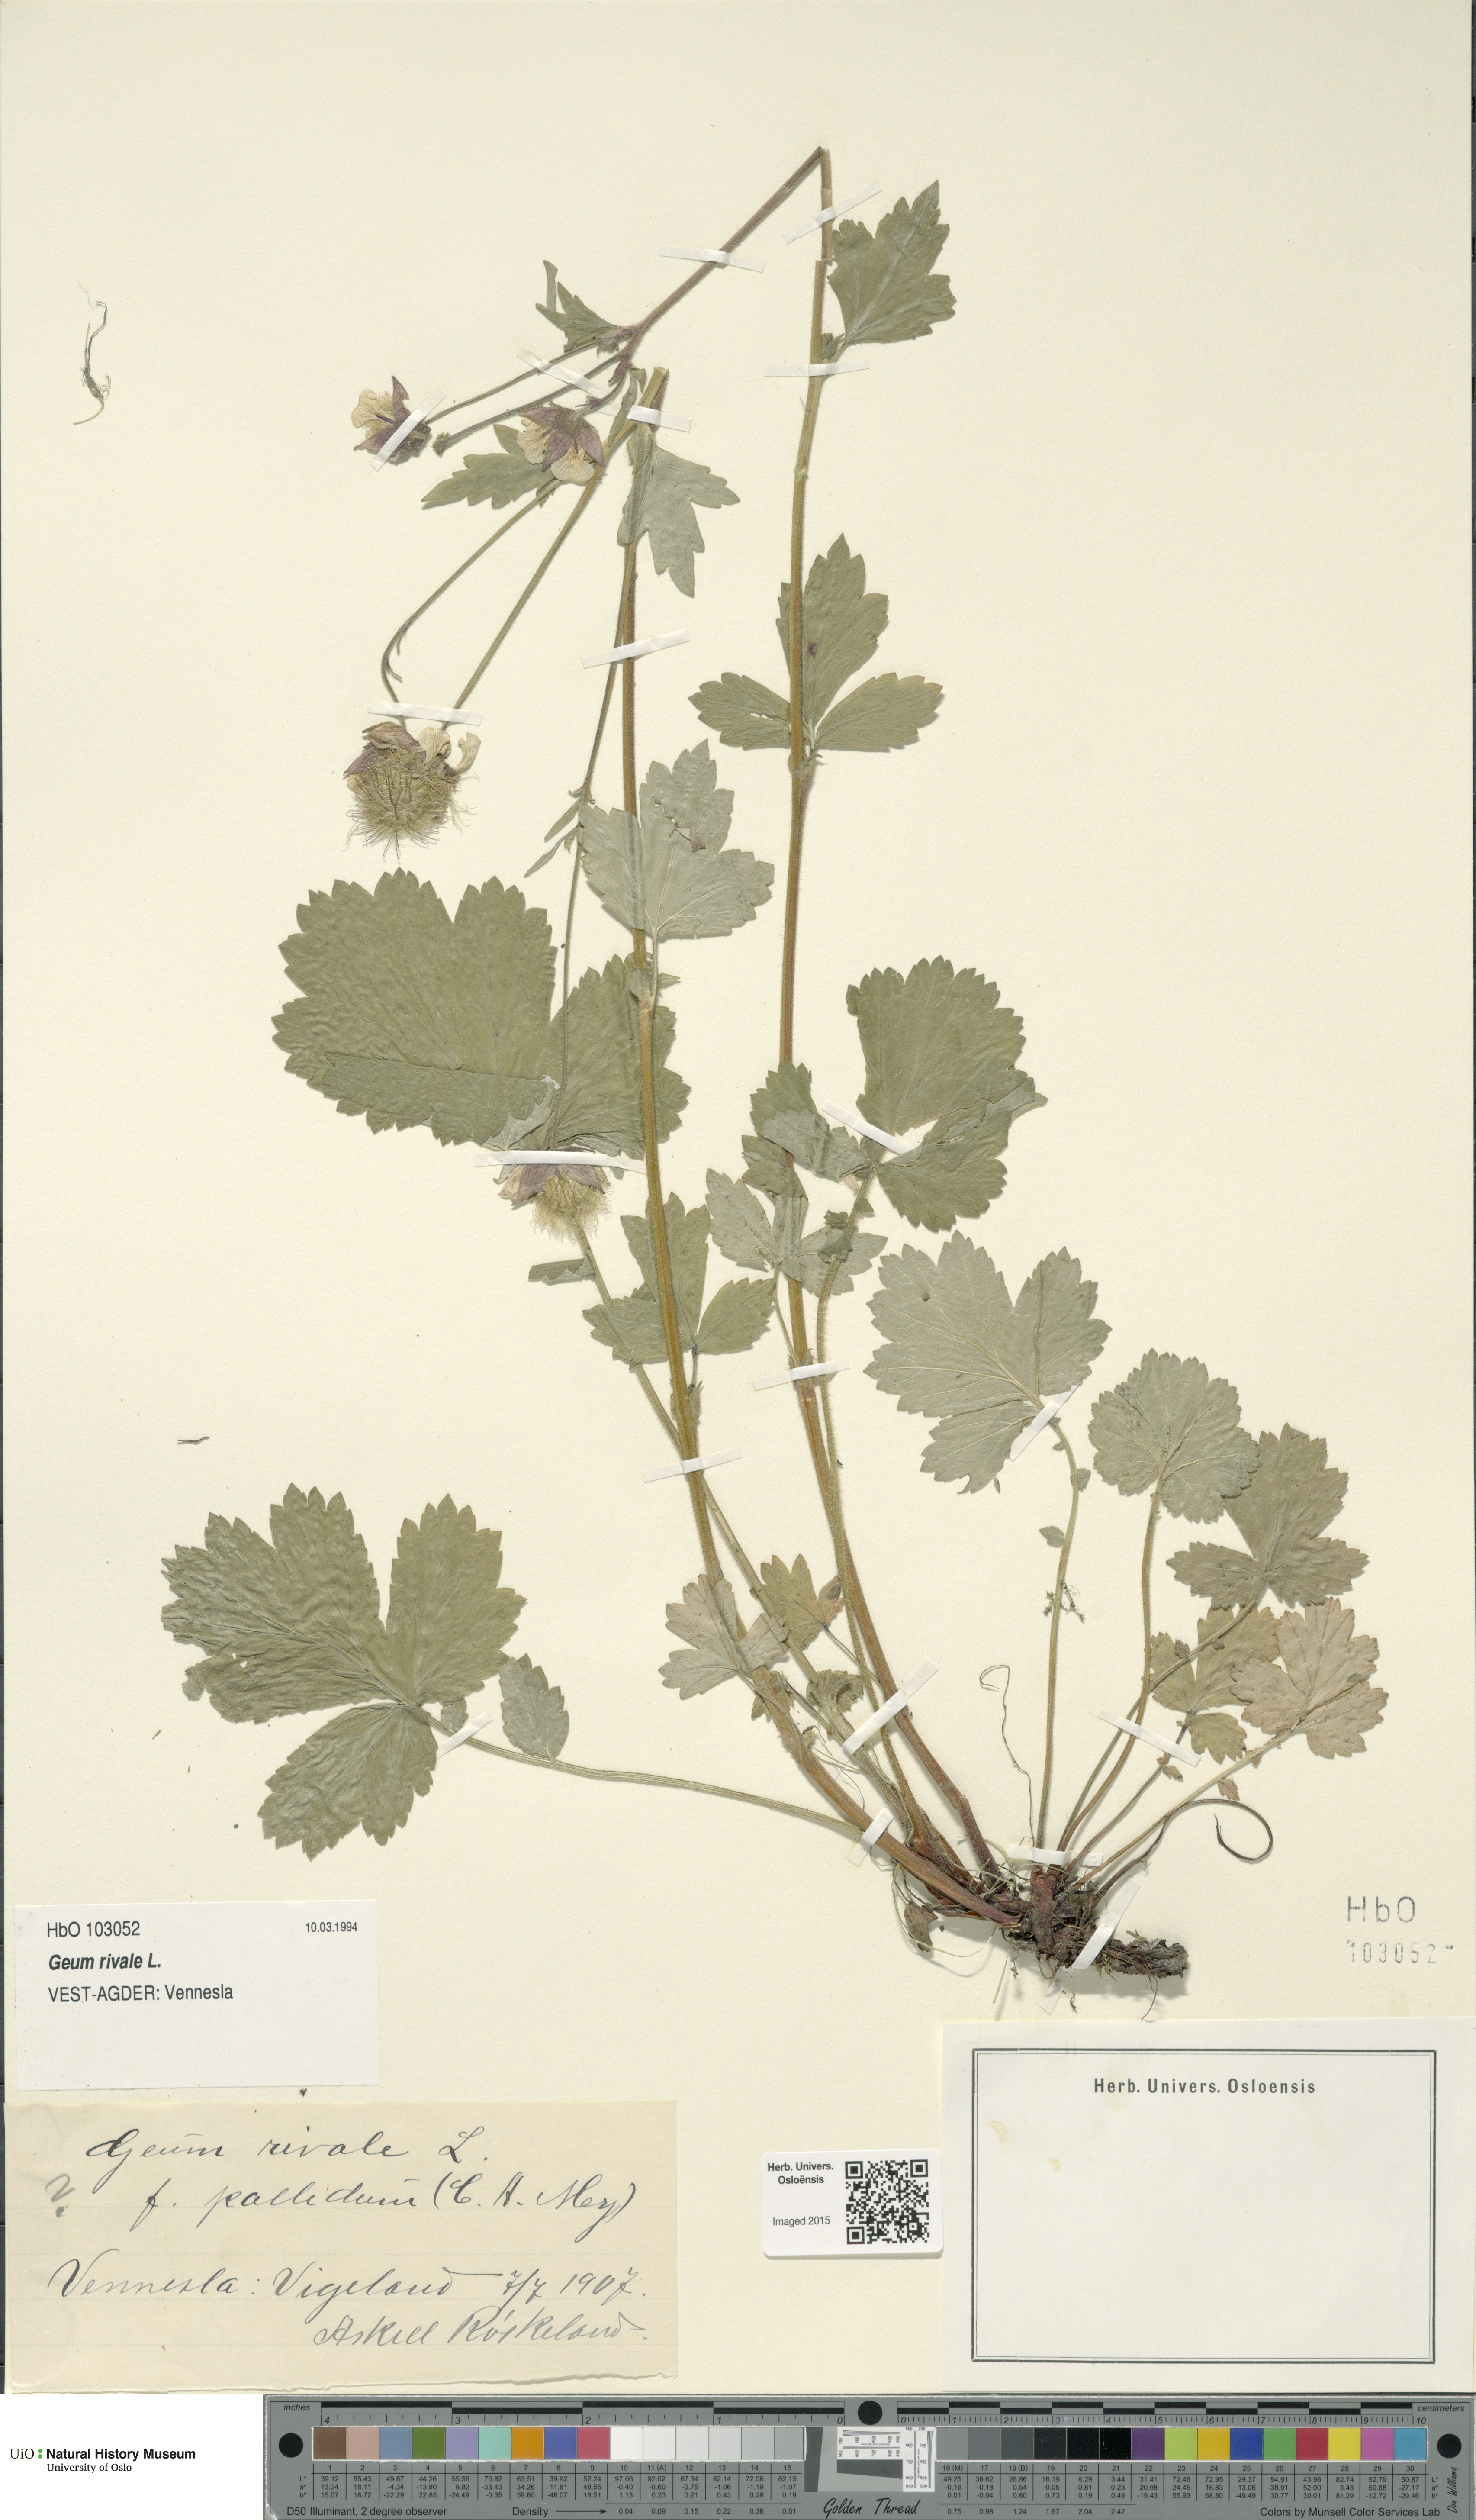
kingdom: Plantae
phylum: Tracheophyta
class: Magnoliopsida
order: Rosales
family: Rosaceae
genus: Geum
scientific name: Geum rivale
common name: Water avens
